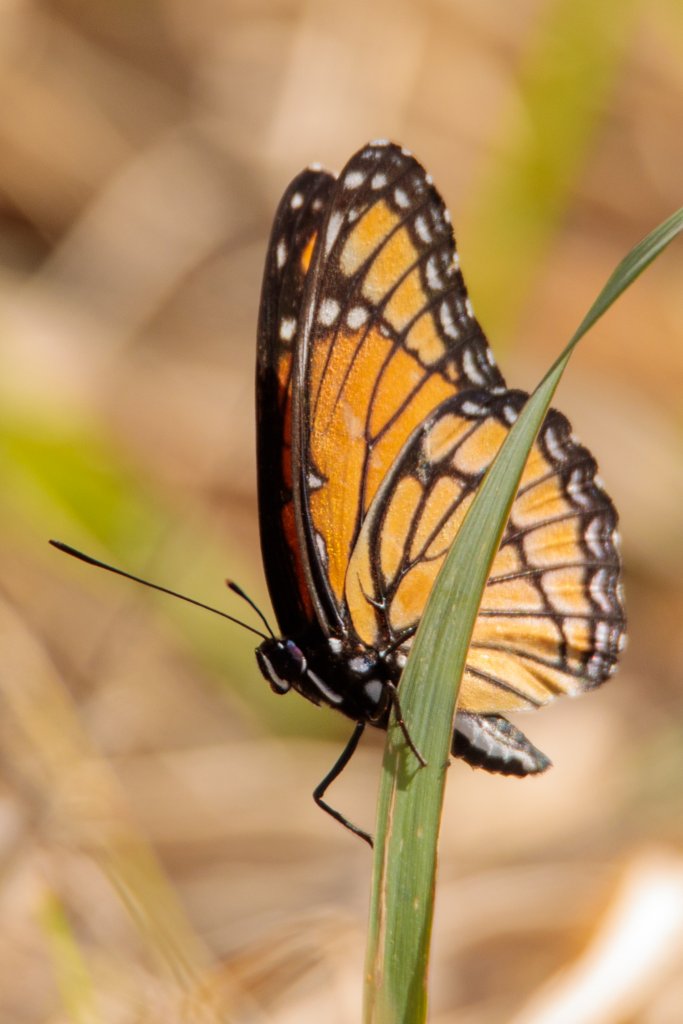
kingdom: Animalia
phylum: Arthropoda
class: Insecta
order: Lepidoptera
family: Nymphalidae
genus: Limenitis
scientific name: Limenitis archippus
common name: Viceroy
